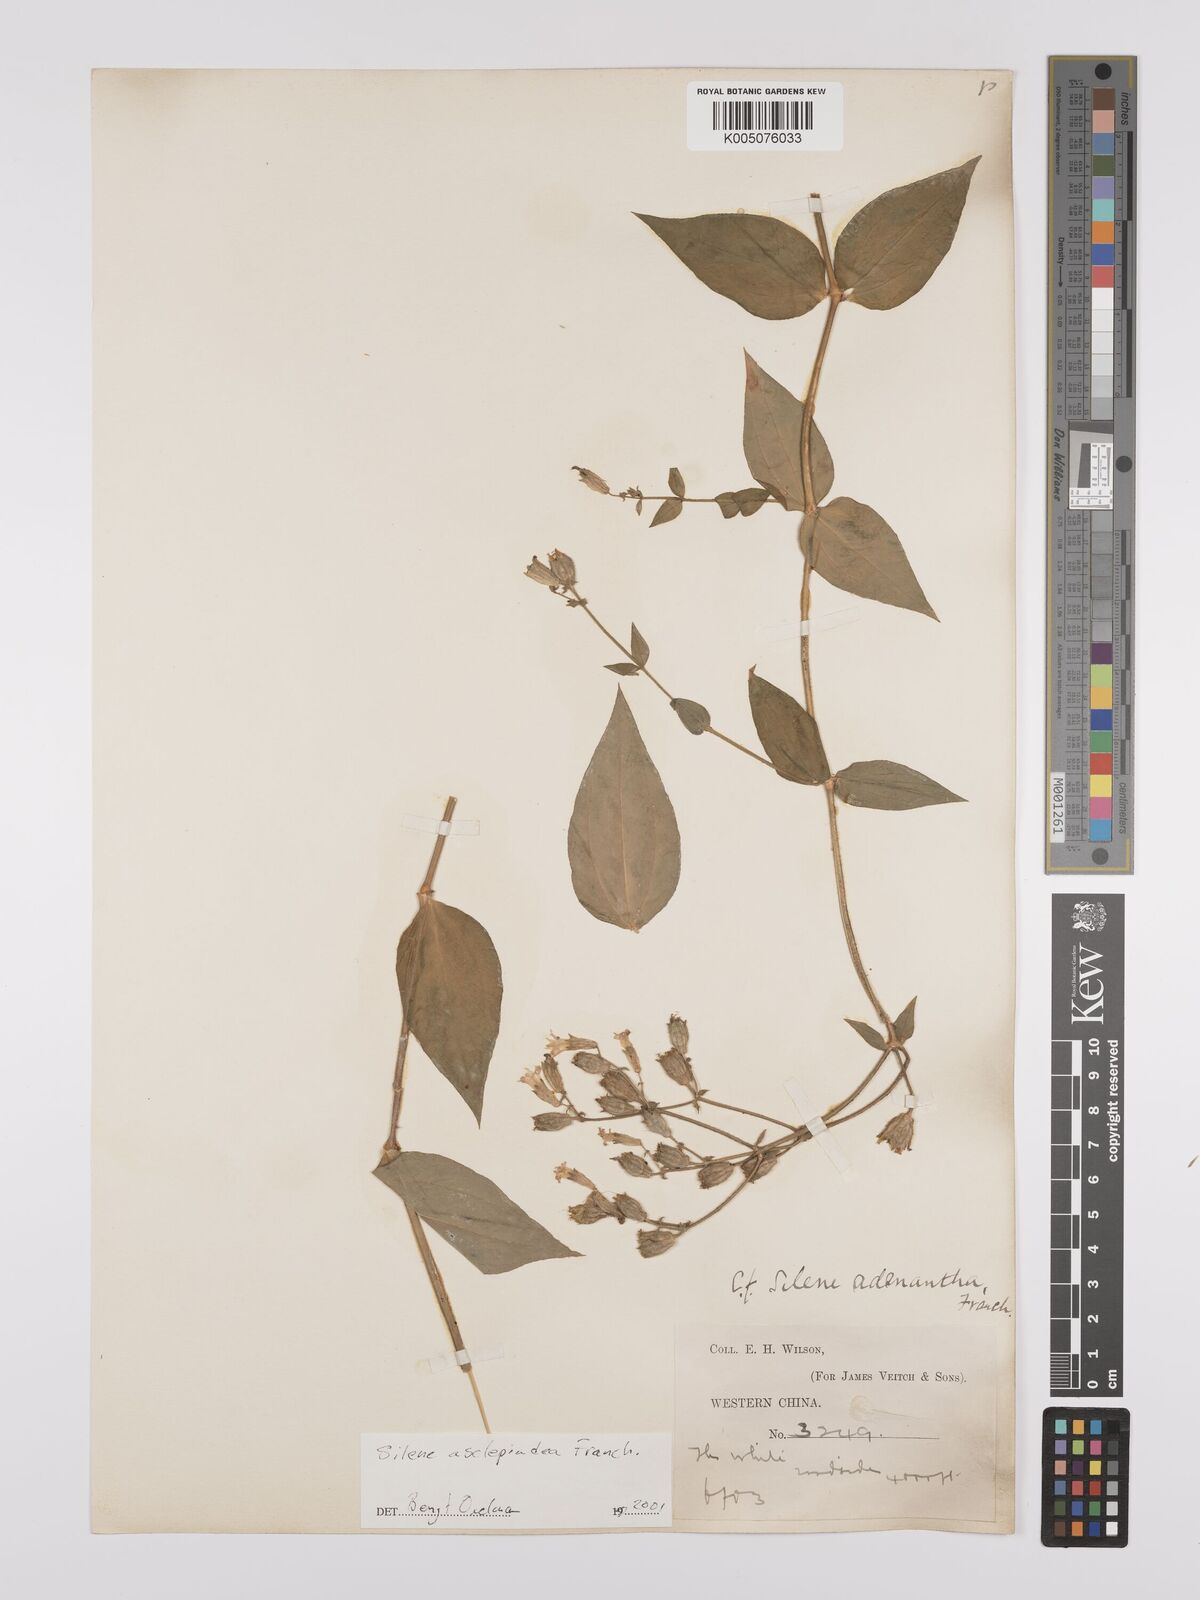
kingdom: Plantae
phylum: Tracheophyta
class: Magnoliopsida
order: Caryophyllales
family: Caryophyllaceae
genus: Silene
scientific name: Silene asclepiadea
